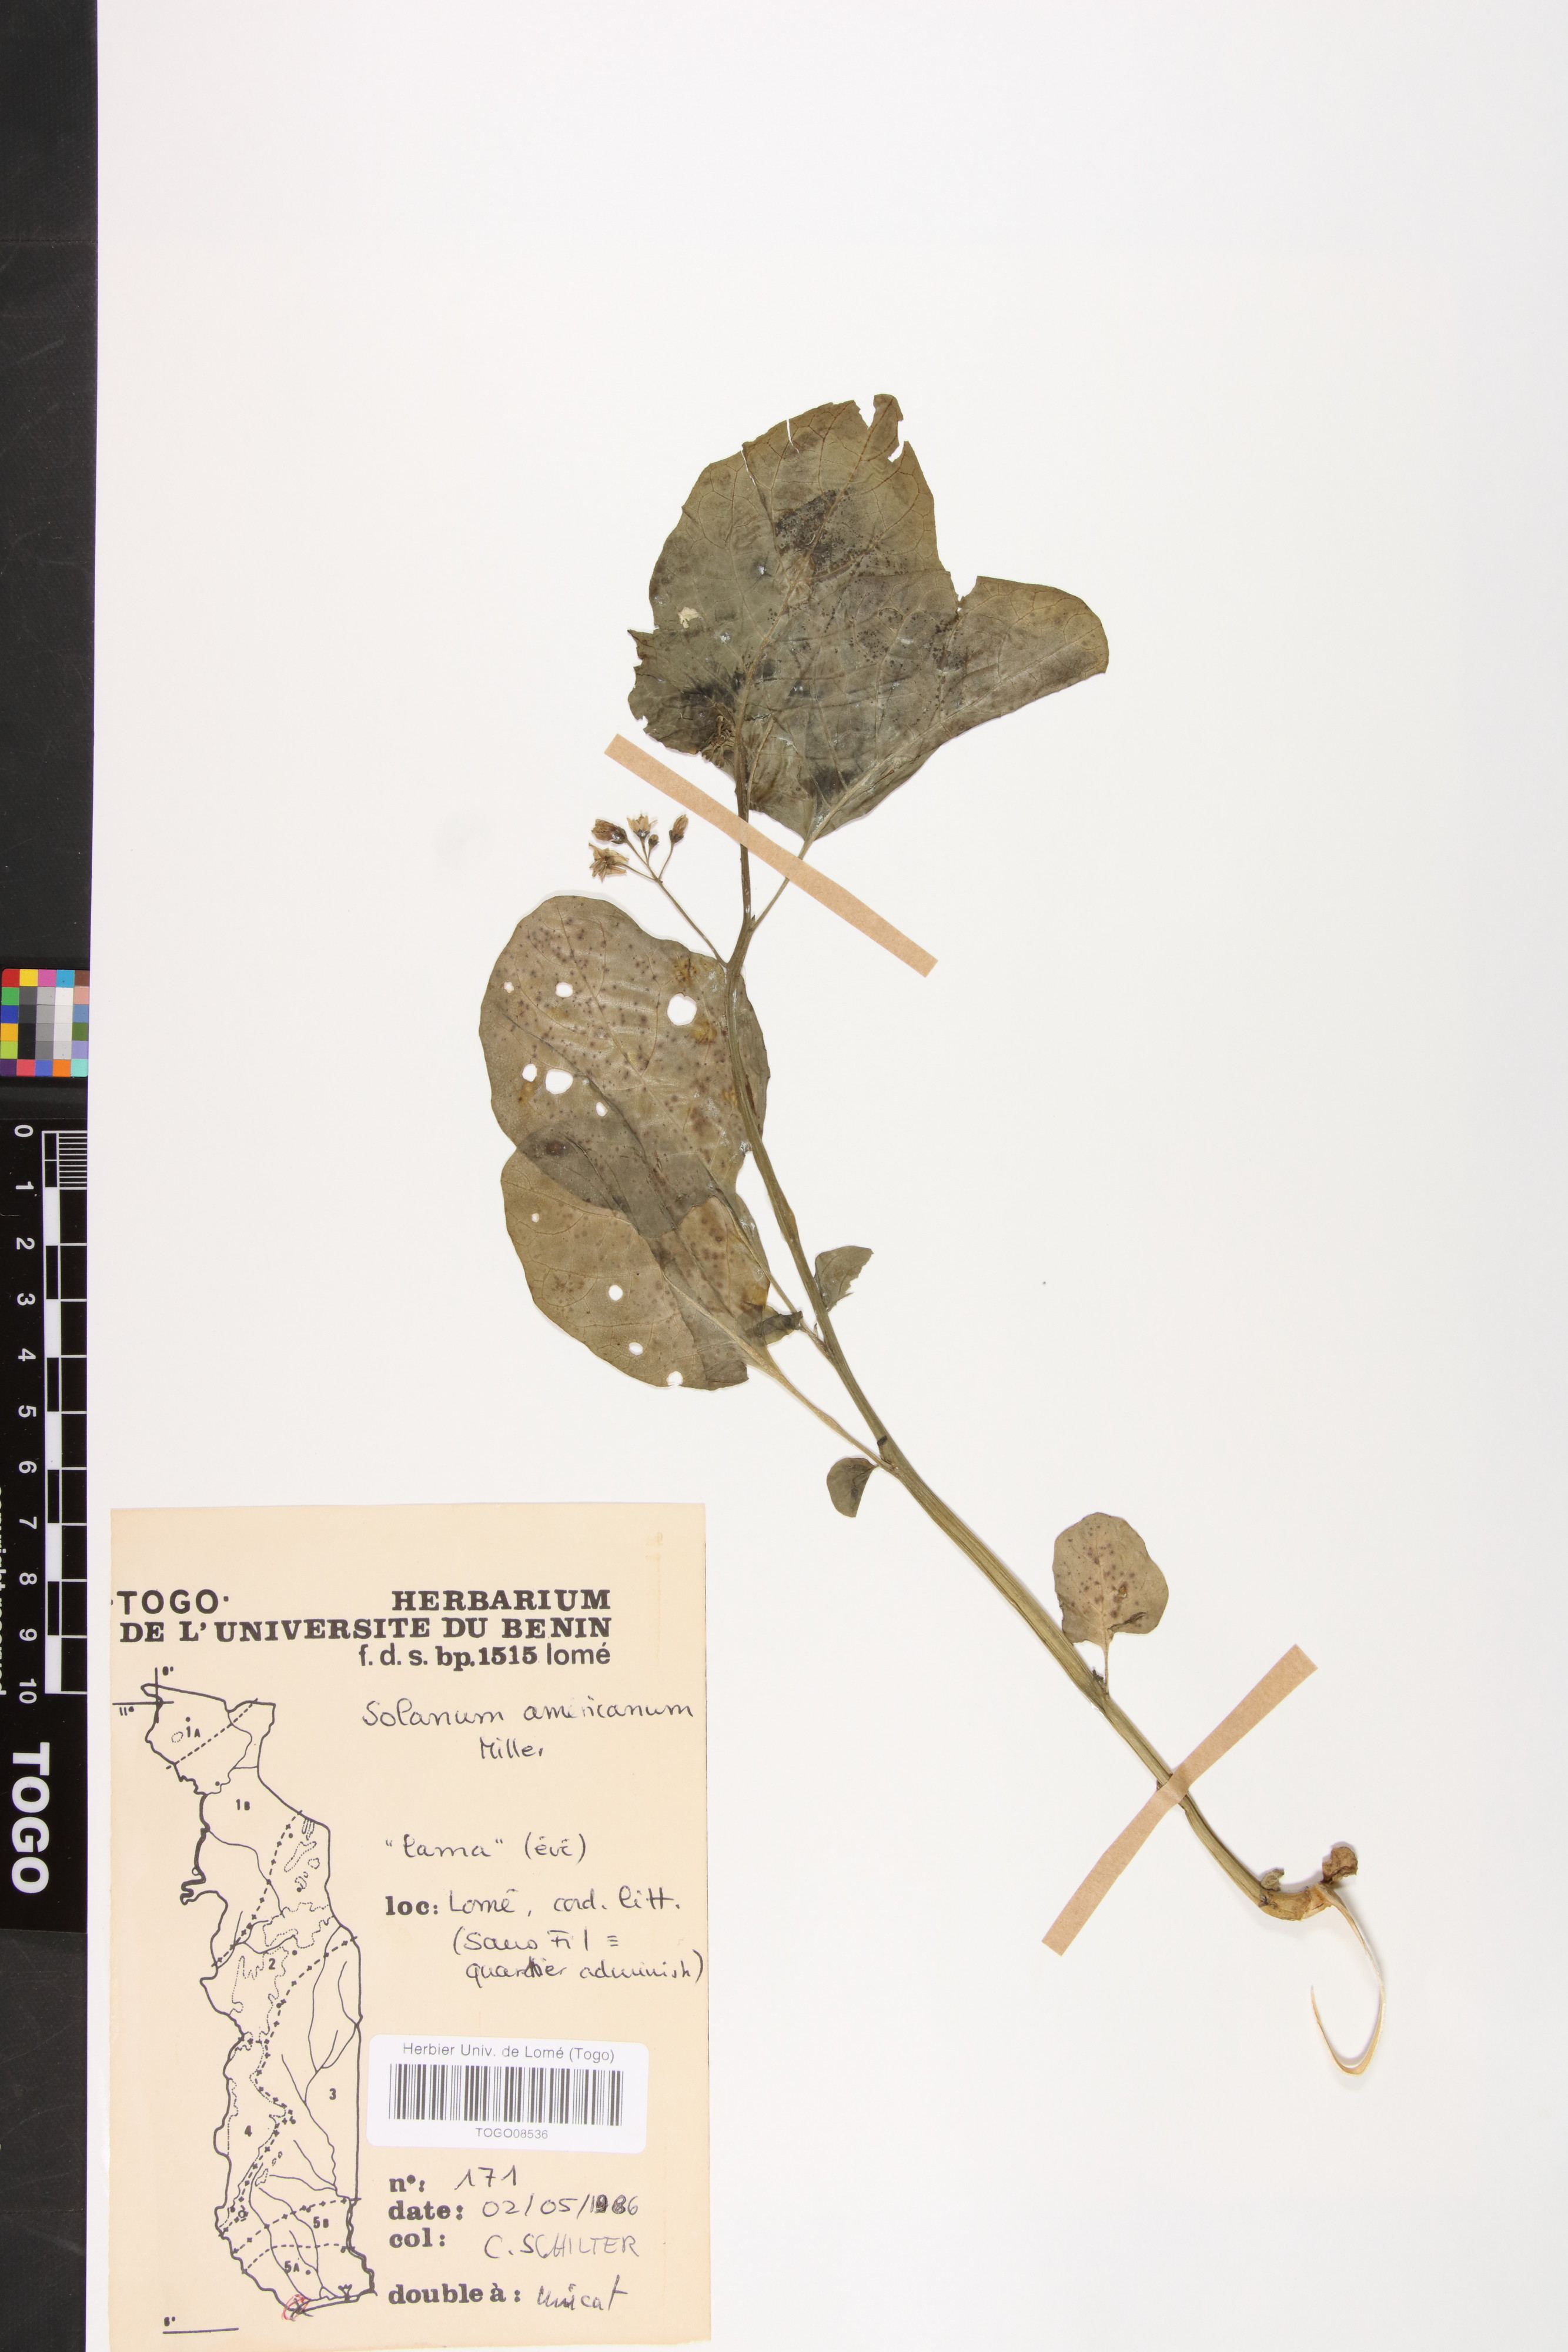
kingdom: Plantae
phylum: Tracheophyta
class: Magnoliopsida
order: Solanales
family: Solanaceae
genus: Solanum
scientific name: Solanum americanum
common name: American black nightshade
